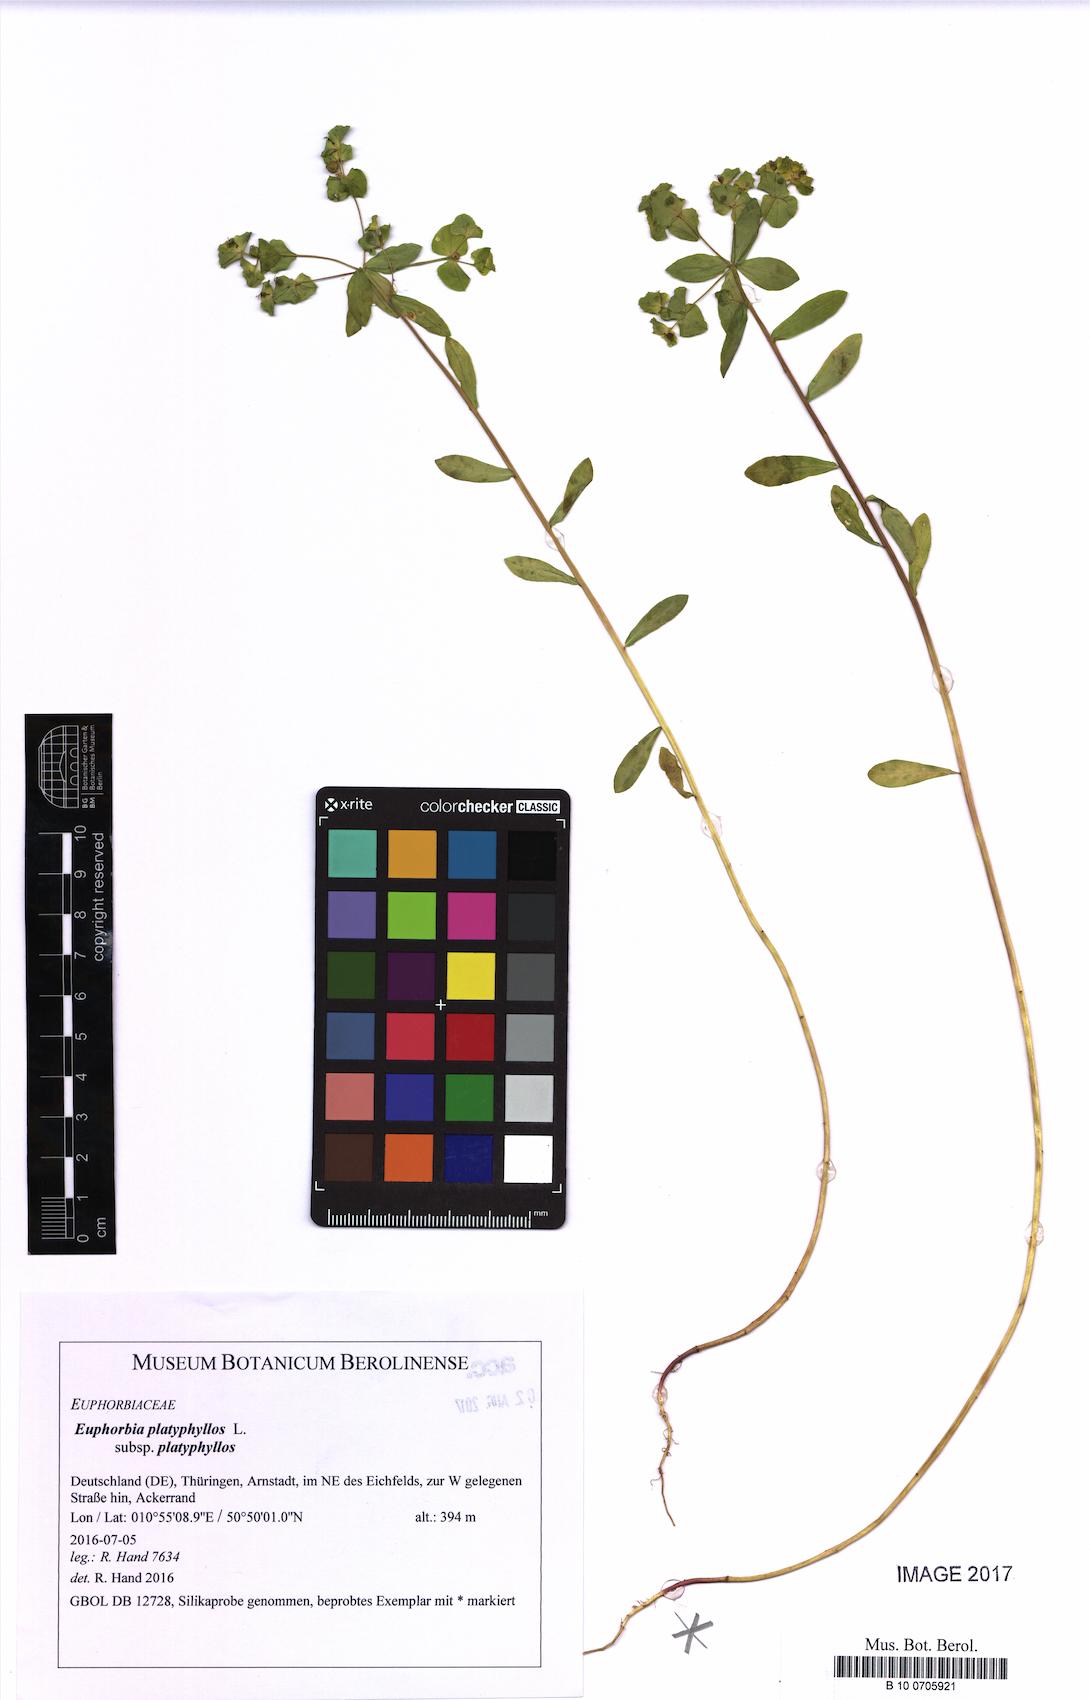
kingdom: Plantae
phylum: Tracheophyta
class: Magnoliopsida
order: Malpighiales
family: Euphorbiaceae
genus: Euphorbia
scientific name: Euphorbia platyphyllos
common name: Broad-leaved spurge
